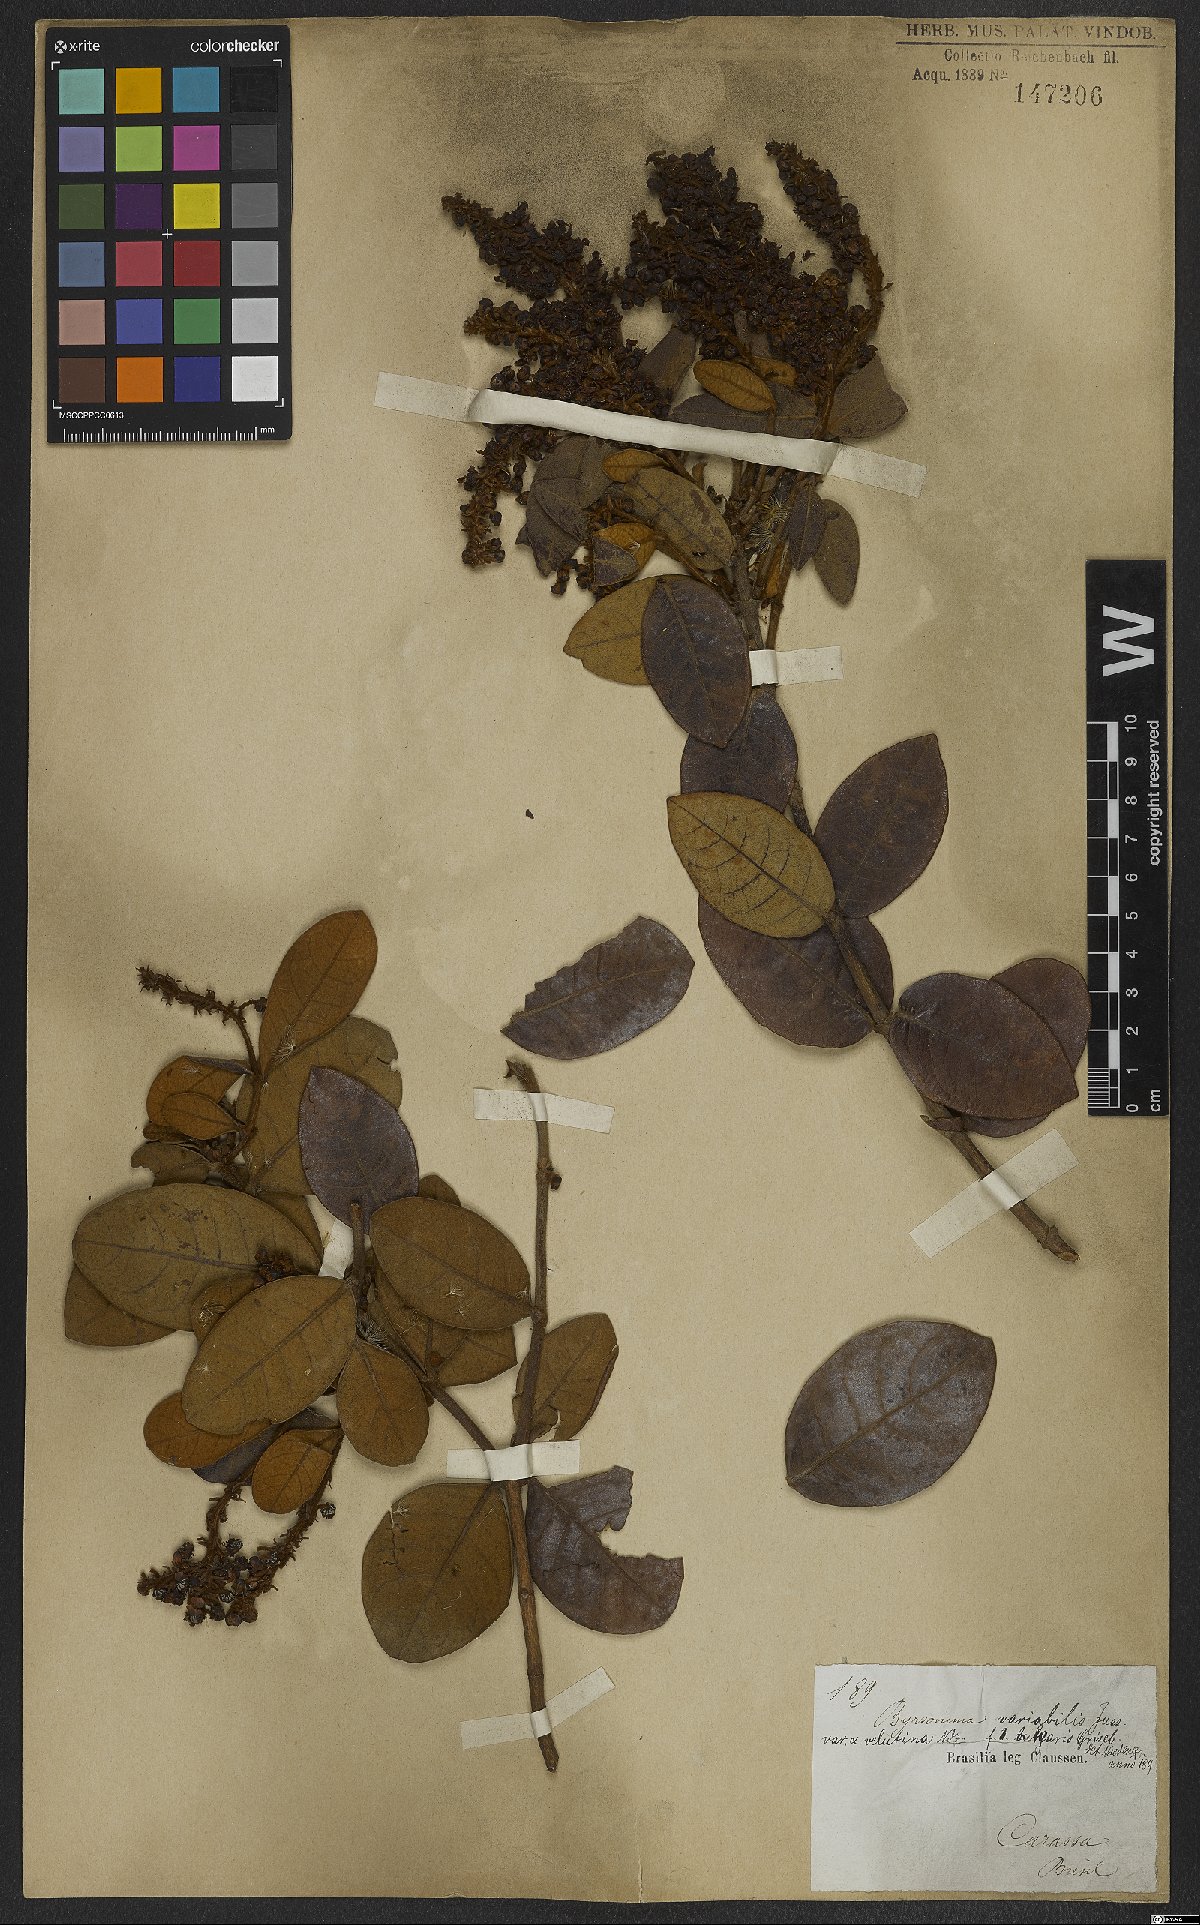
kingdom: Plantae
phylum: Tracheophyta
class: Magnoliopsida
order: Malpighiales
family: Malpighiaceae
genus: Byrsonima
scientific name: Byrsonima variabilis
